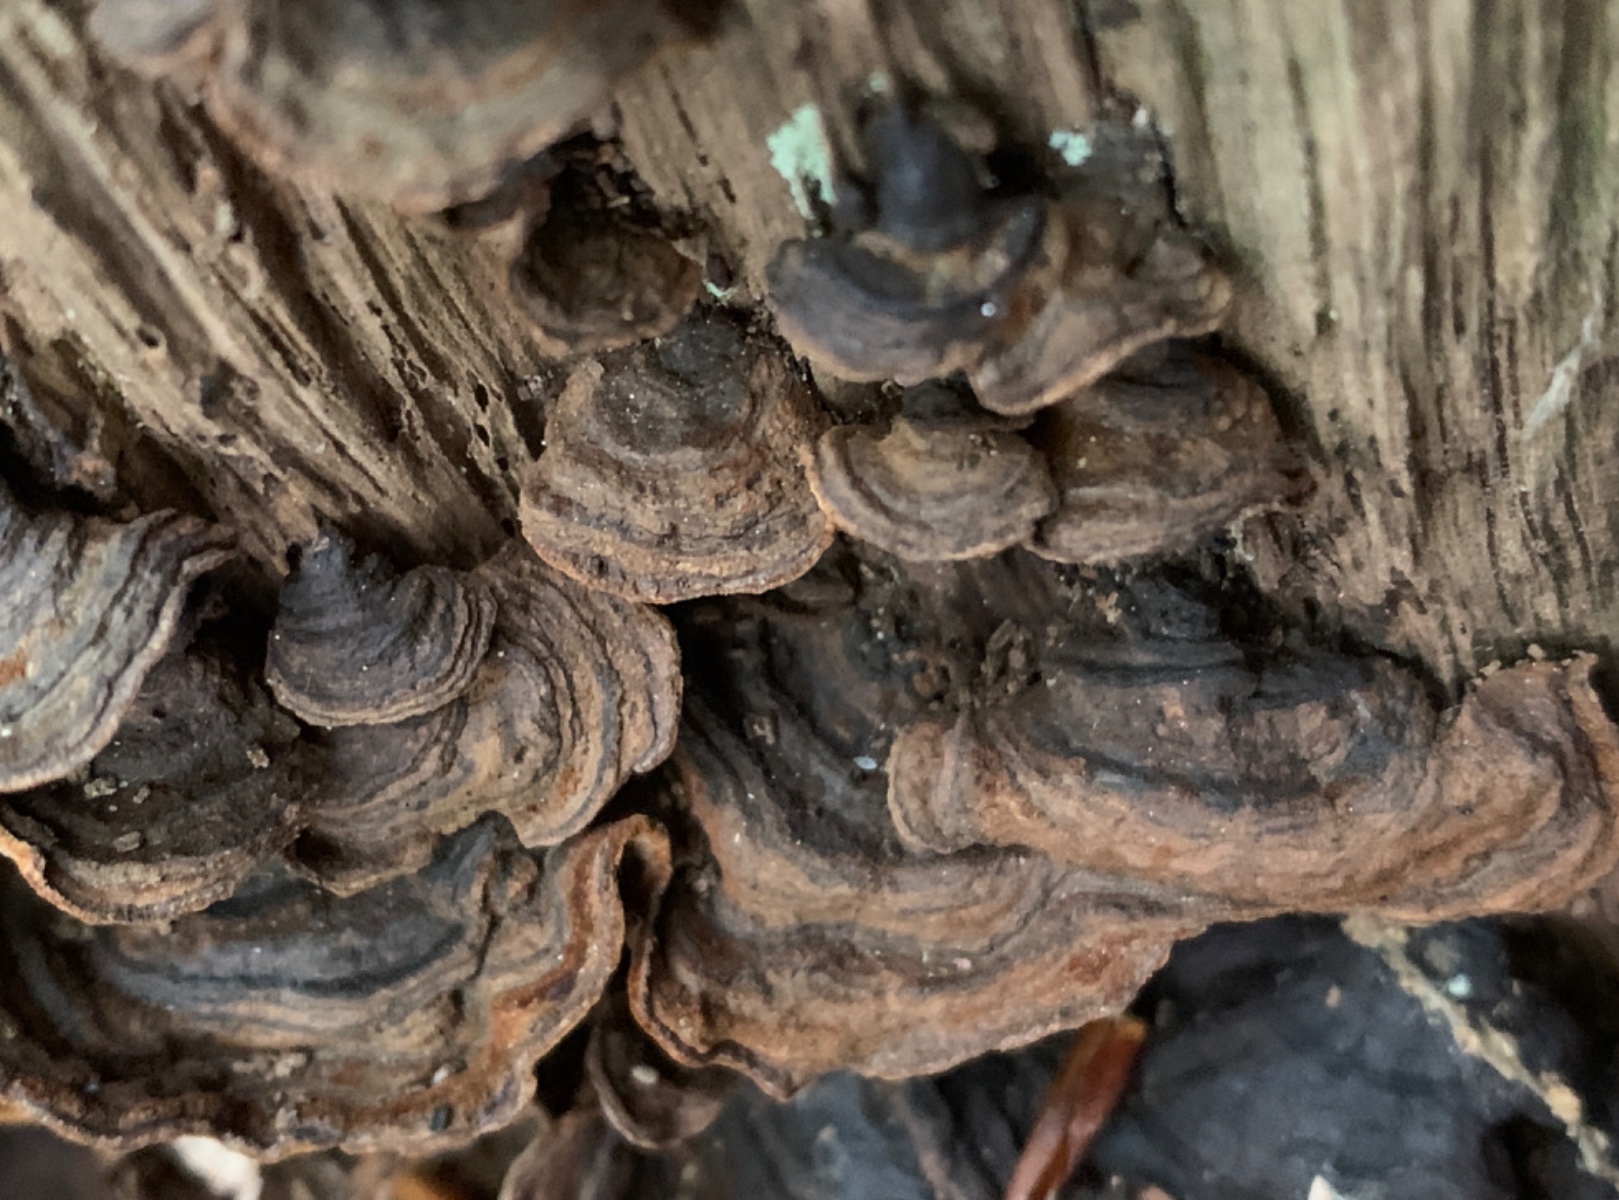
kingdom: Fungi
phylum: Basidiomycota
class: Agaricomycetes
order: Hymenochaetales
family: Hymenochaetaceae
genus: Hymenochaete
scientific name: Hymenochaete rubiginosa
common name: stiv ruslædersvamp
